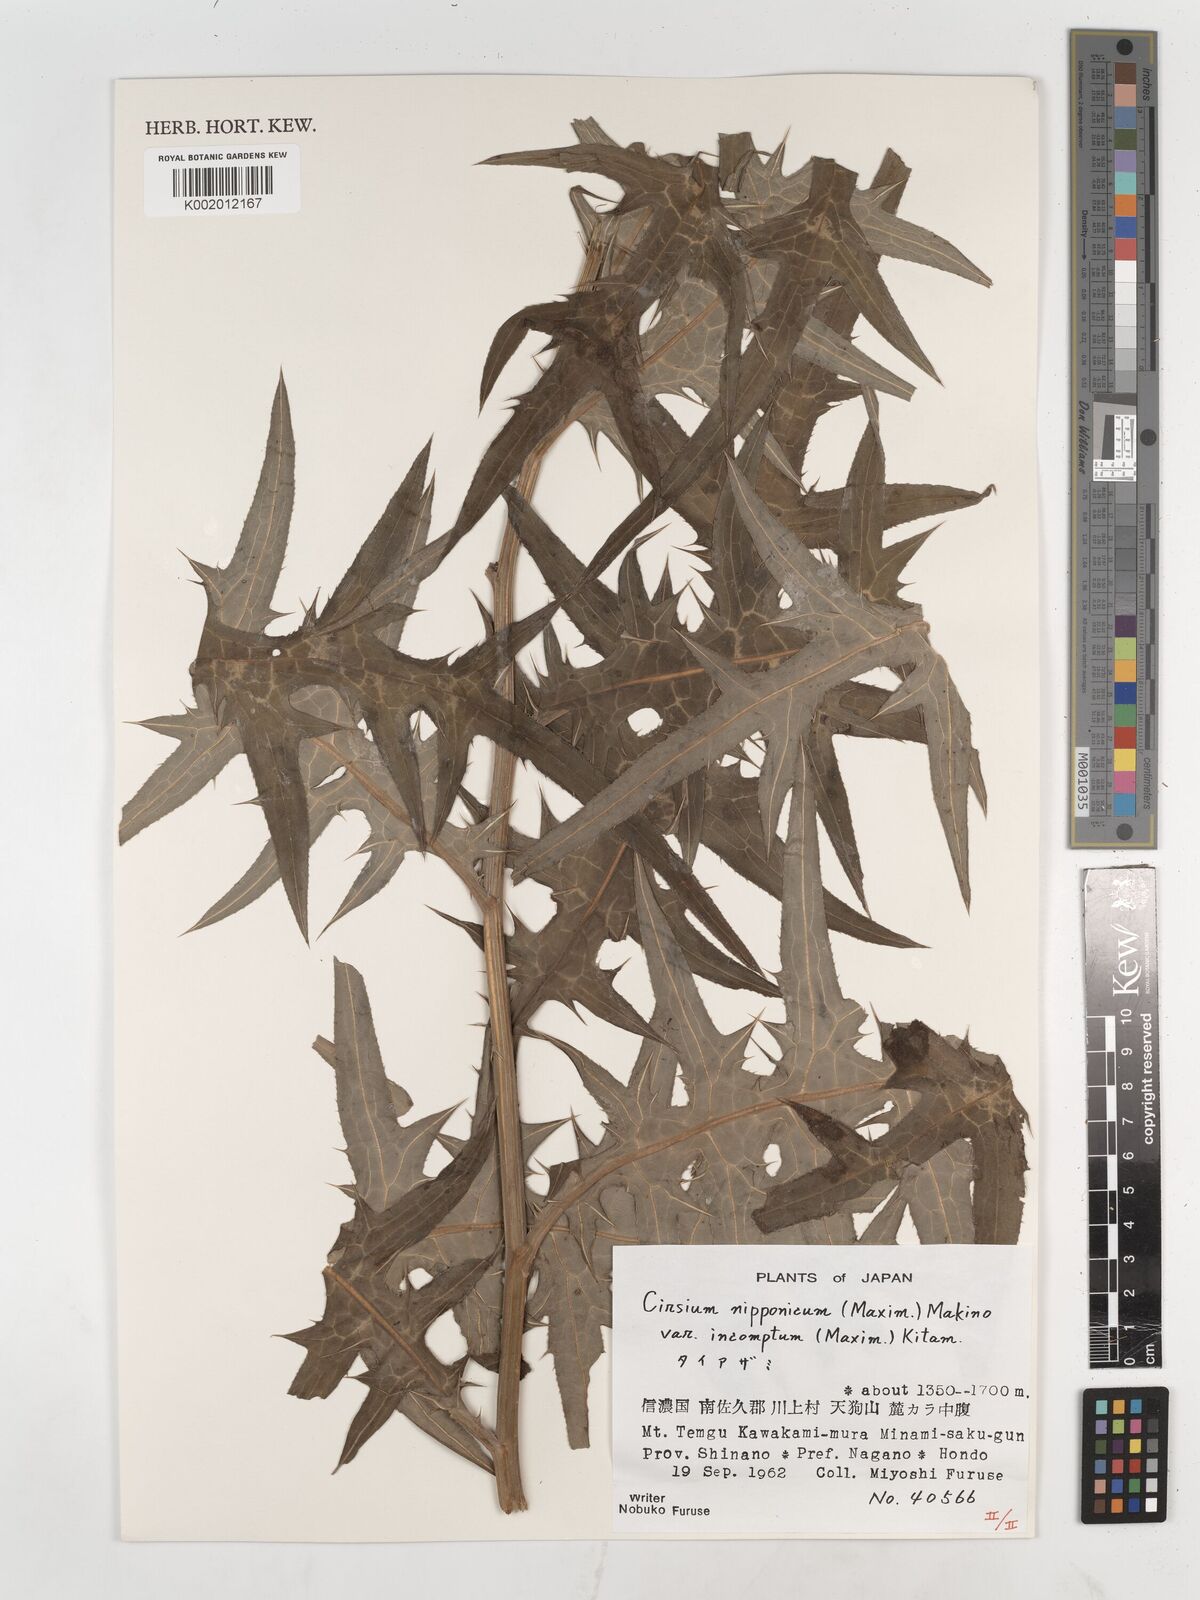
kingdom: Plantae
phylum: Tracheophyta
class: Magnoliopsida
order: Asterales
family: Asteraceae
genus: Cirsium
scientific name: Cirsium nipponicum
